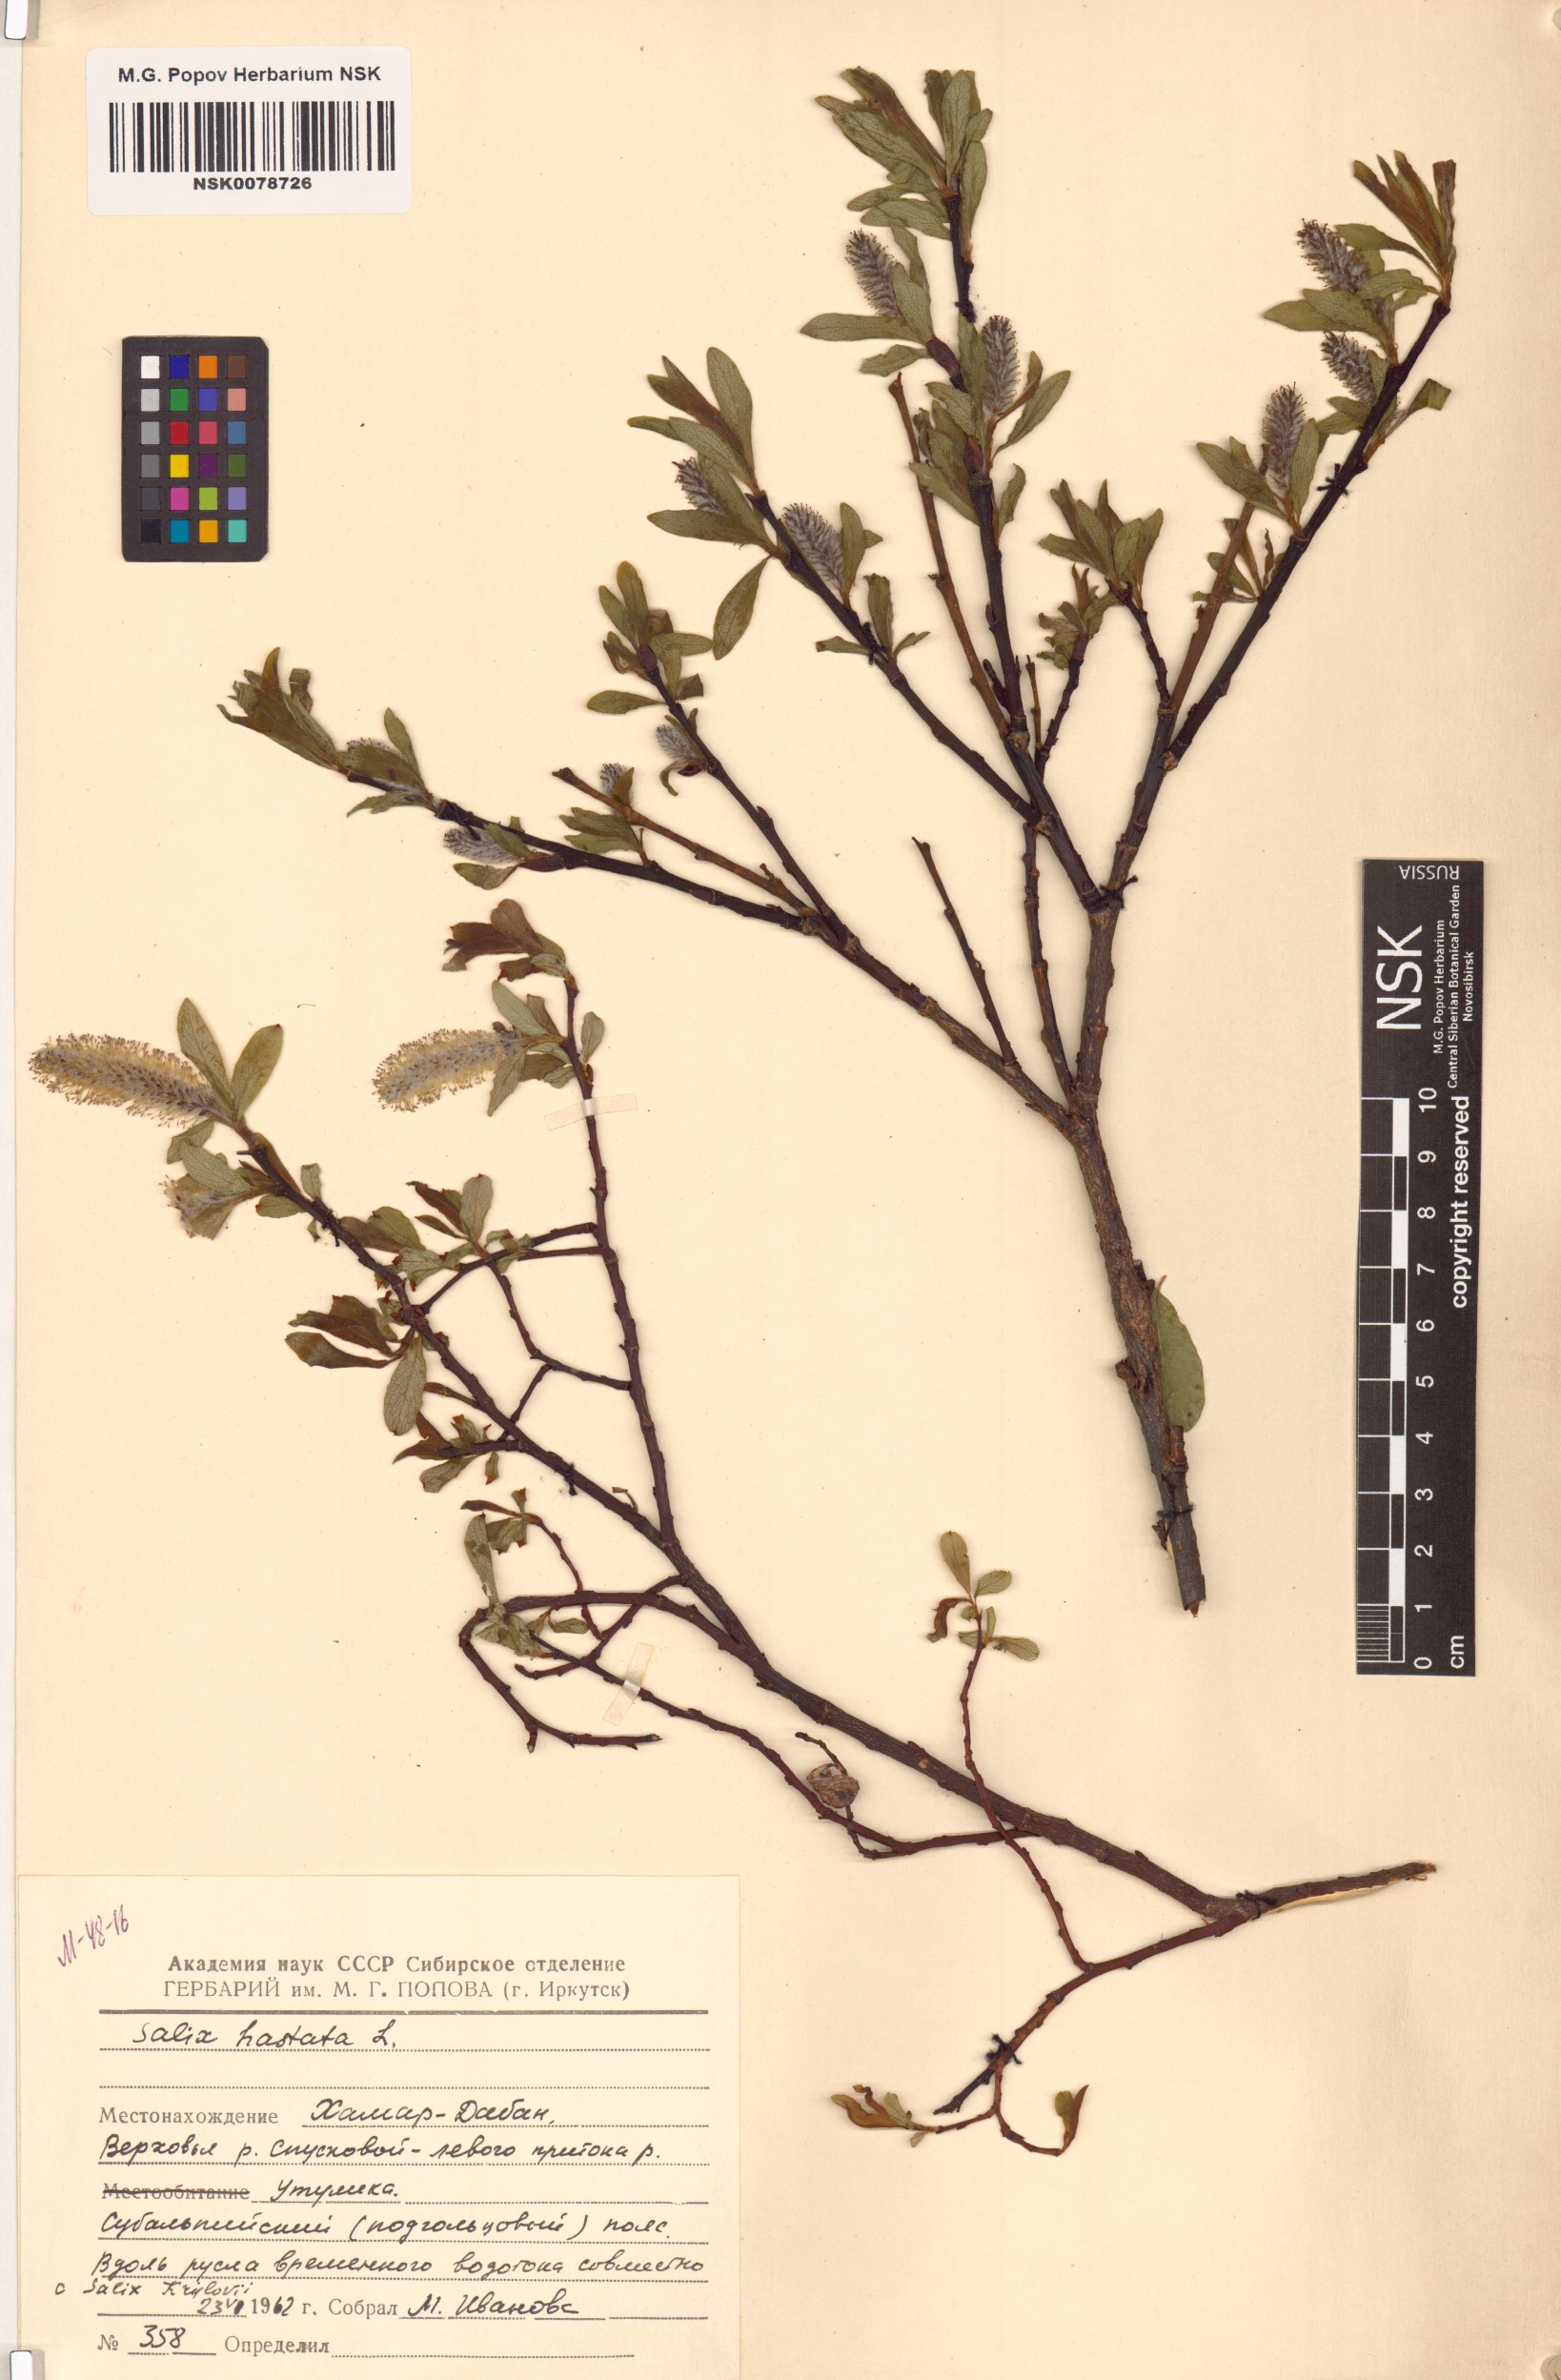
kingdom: Plantae
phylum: Tracheophyta
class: Magnoliopsida
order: Malpighiales
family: Salicaceae
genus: Salix
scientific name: Salix hastata
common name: Halberd willow
